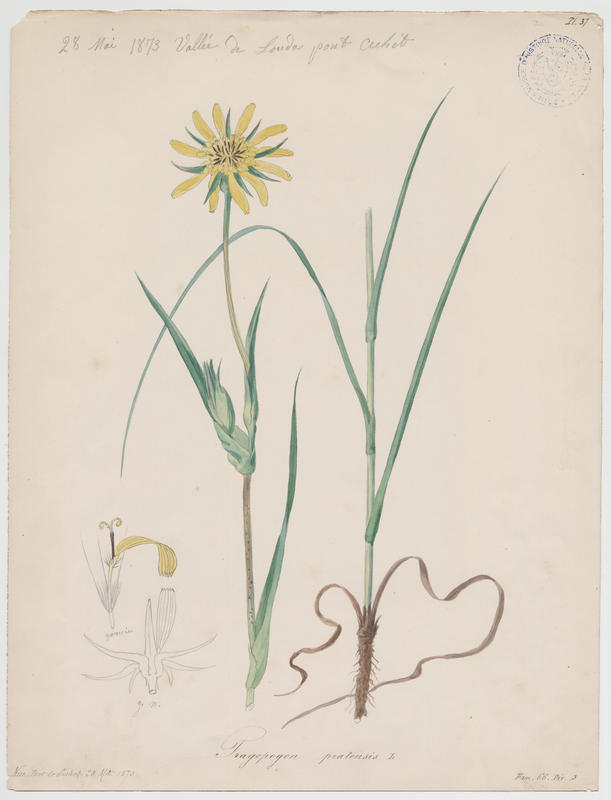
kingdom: Plantae
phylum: Tracheophyta
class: Magnoliopsida
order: Asterales
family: Asteraceae
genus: Tragopogon
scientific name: Tragopogon pratensis
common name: Goat's-beard
